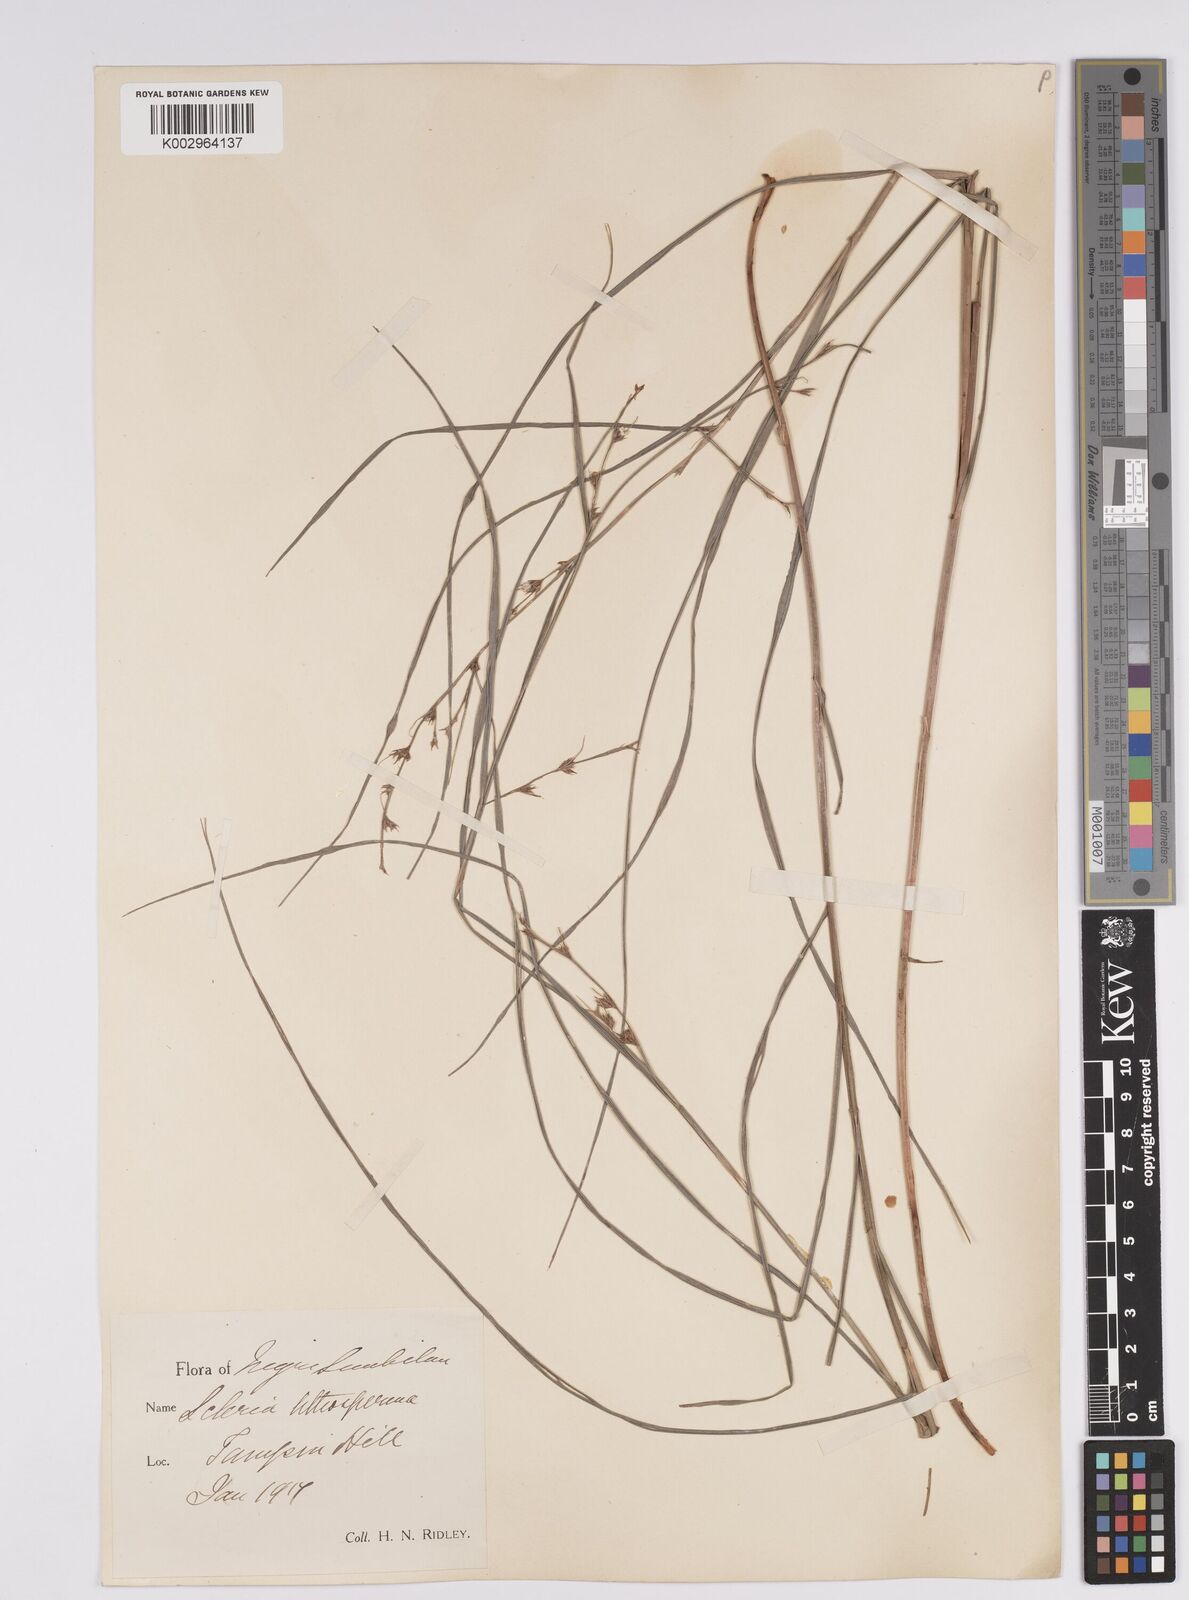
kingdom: Plantae
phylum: Tracheophyta
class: Liliopsida
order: Poales
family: Cyperaceae
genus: Scleria
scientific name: Scleria lithosperma
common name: Florida keys nut-rush
